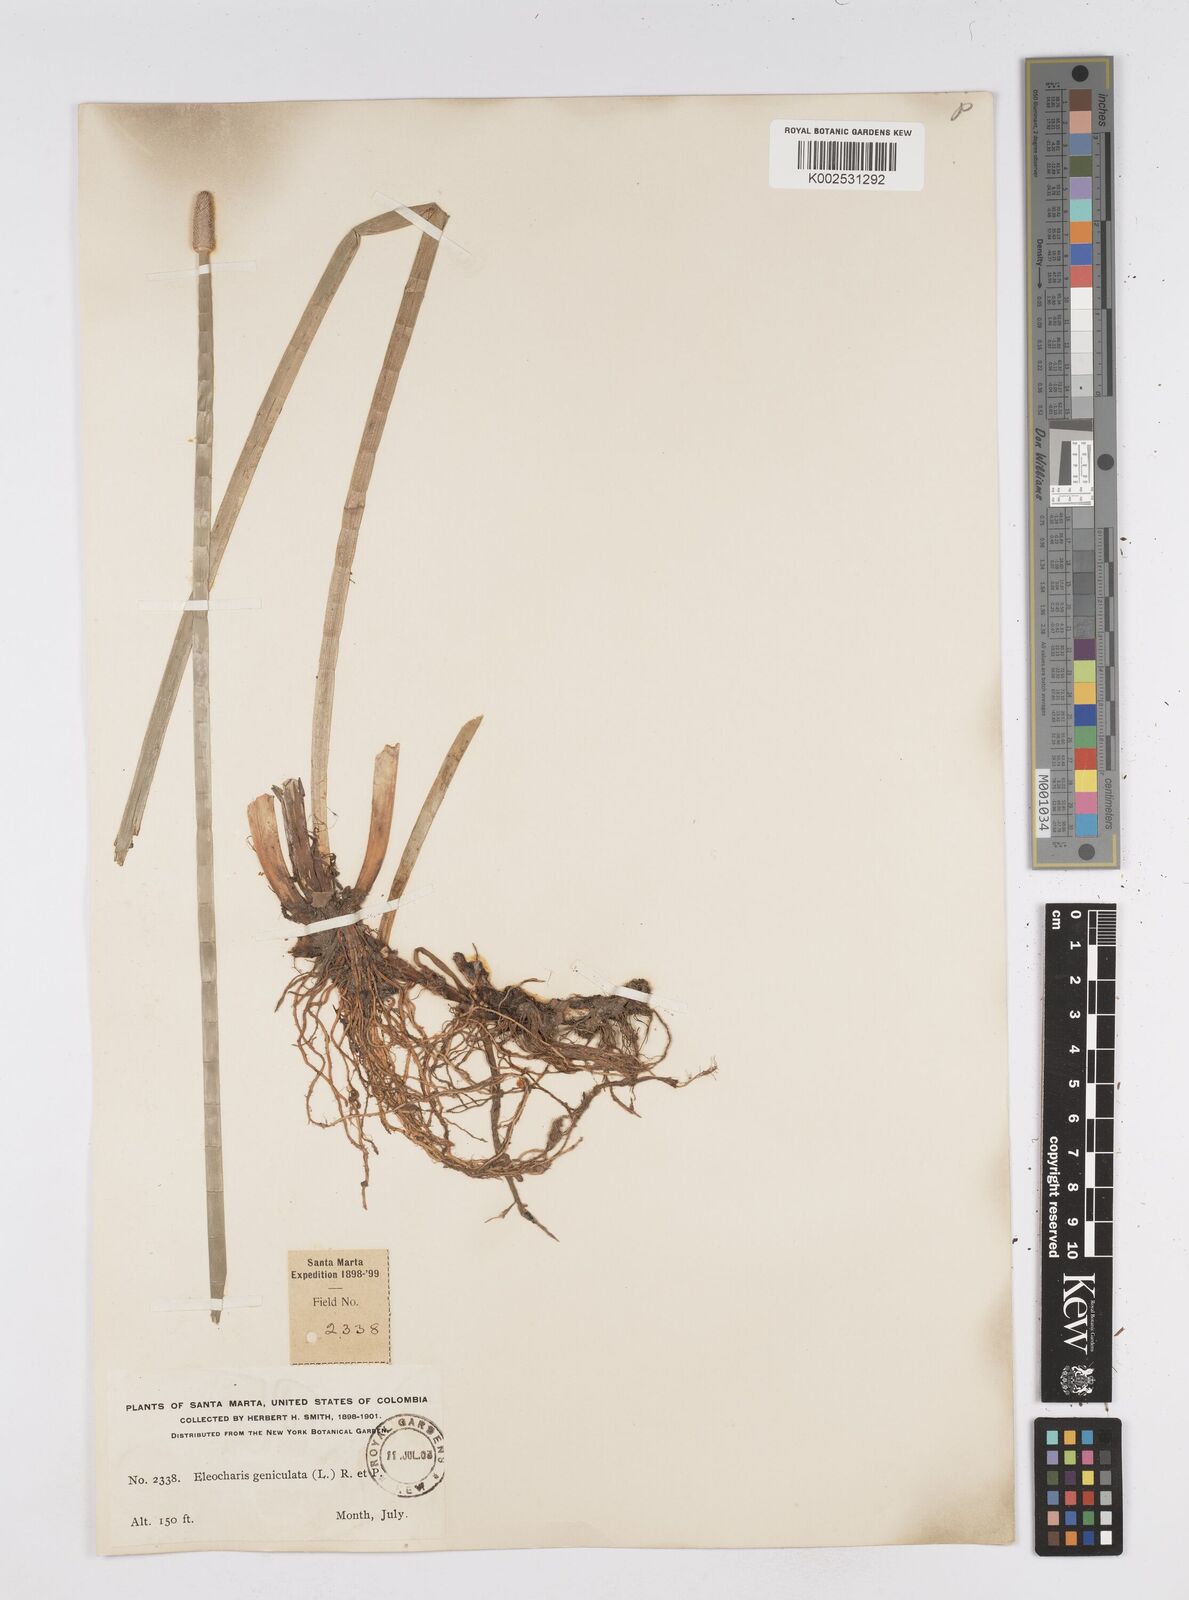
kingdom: Plantae
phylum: Tracheophyta
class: Liliopsida
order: Poales
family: Cyperaceae
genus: Eleocharis
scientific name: Eleocharis elegans
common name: Elegant spike-rush
